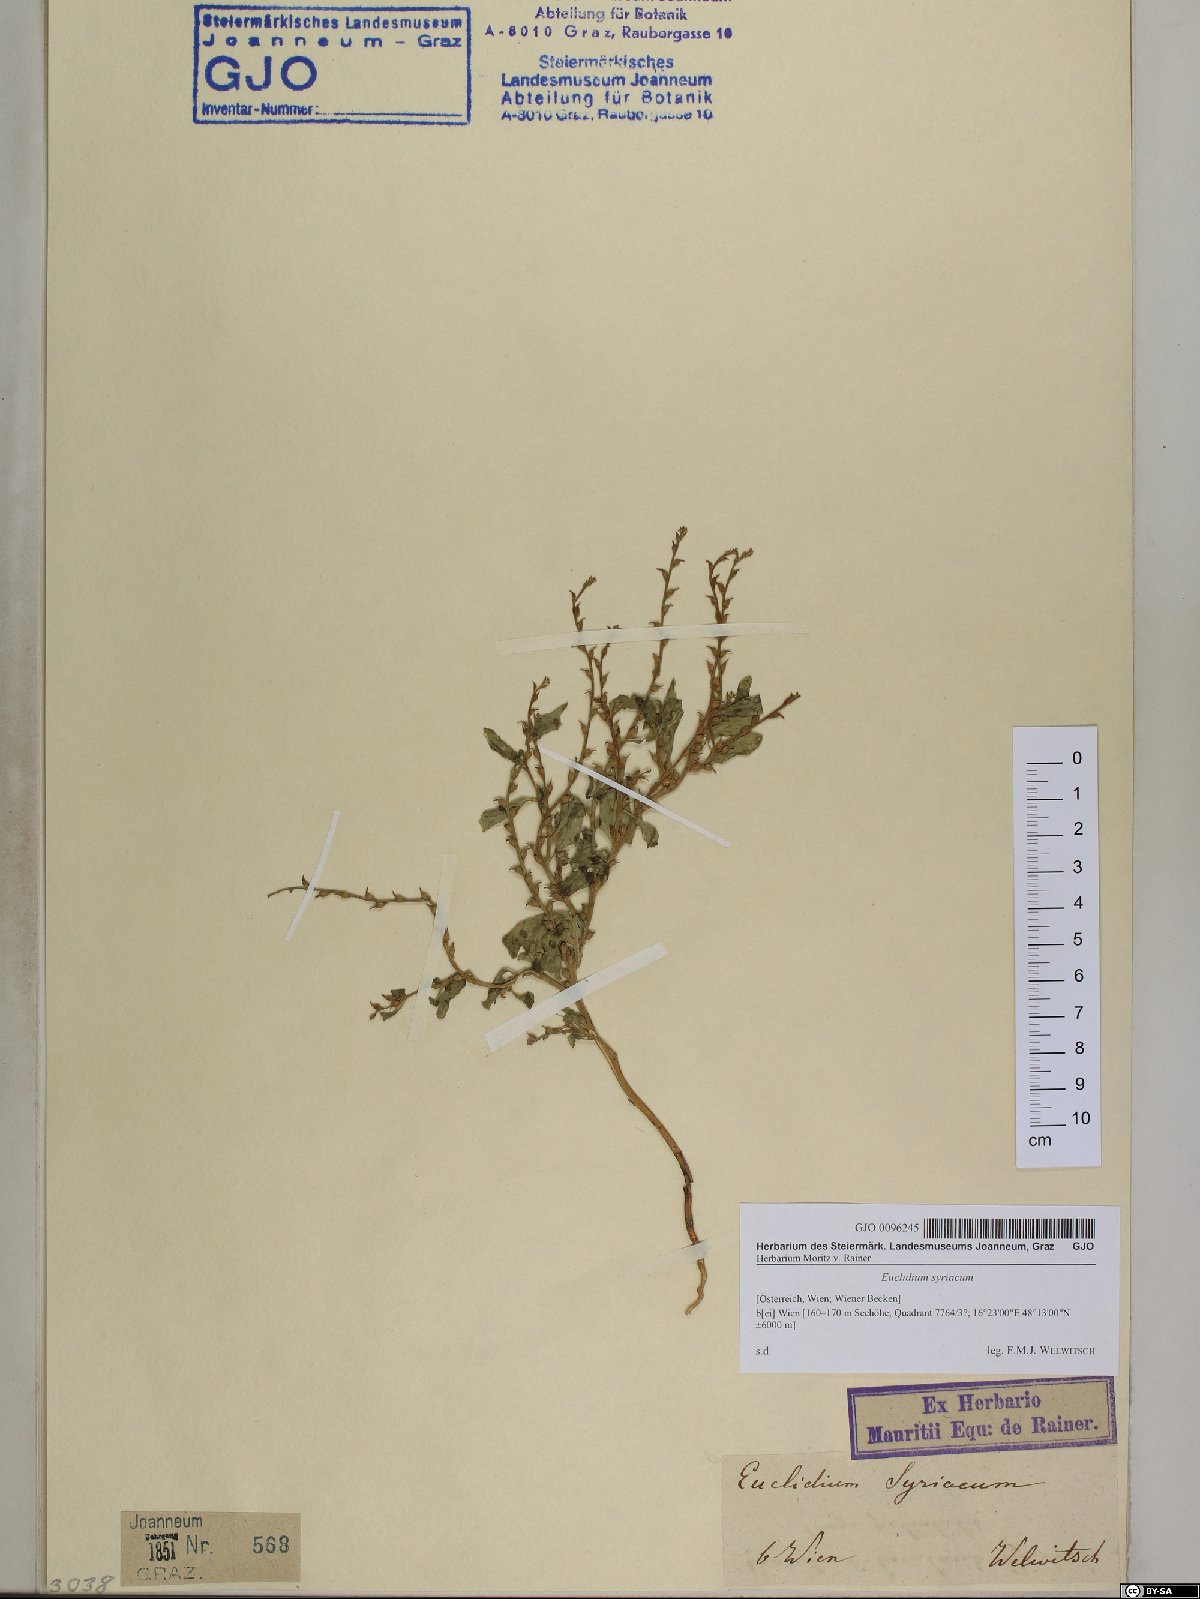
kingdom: Plantae
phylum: Tracheophyta
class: Magnoliopsida
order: Brassicales
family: Brassicaceae
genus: Euclidium
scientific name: Euclidium syriacum
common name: Syrian mustard
